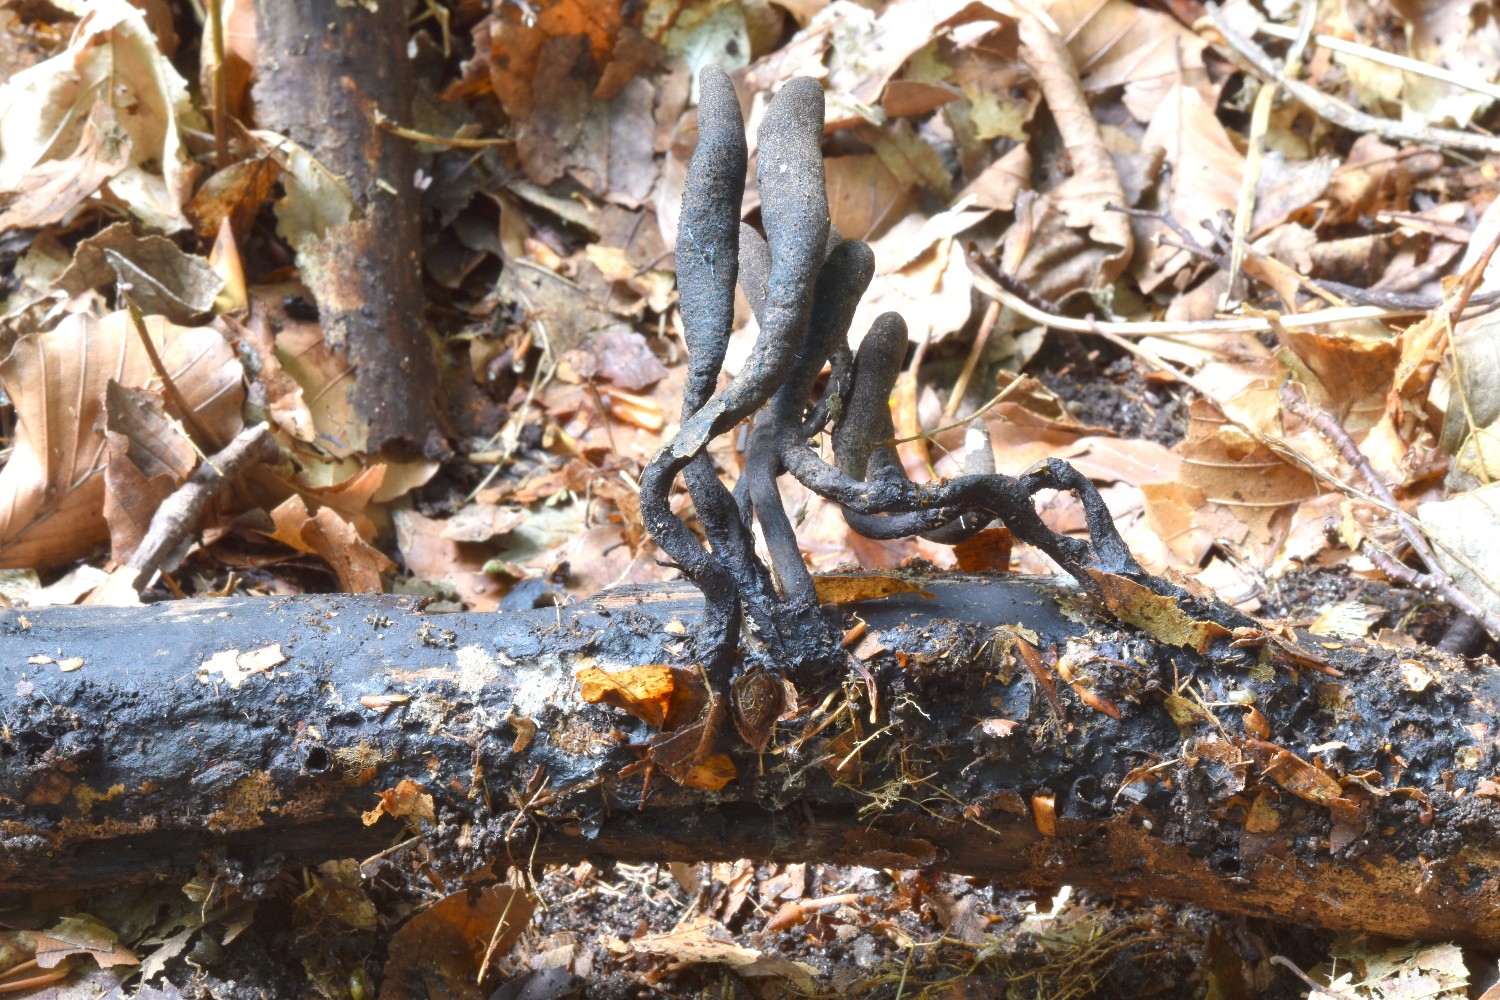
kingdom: Fungi
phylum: Ascomycota
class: Sordariomycetes
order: Xylariales
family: Xylariaceae
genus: Xylaria
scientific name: Xylaria longipes
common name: slank stødsvamp
